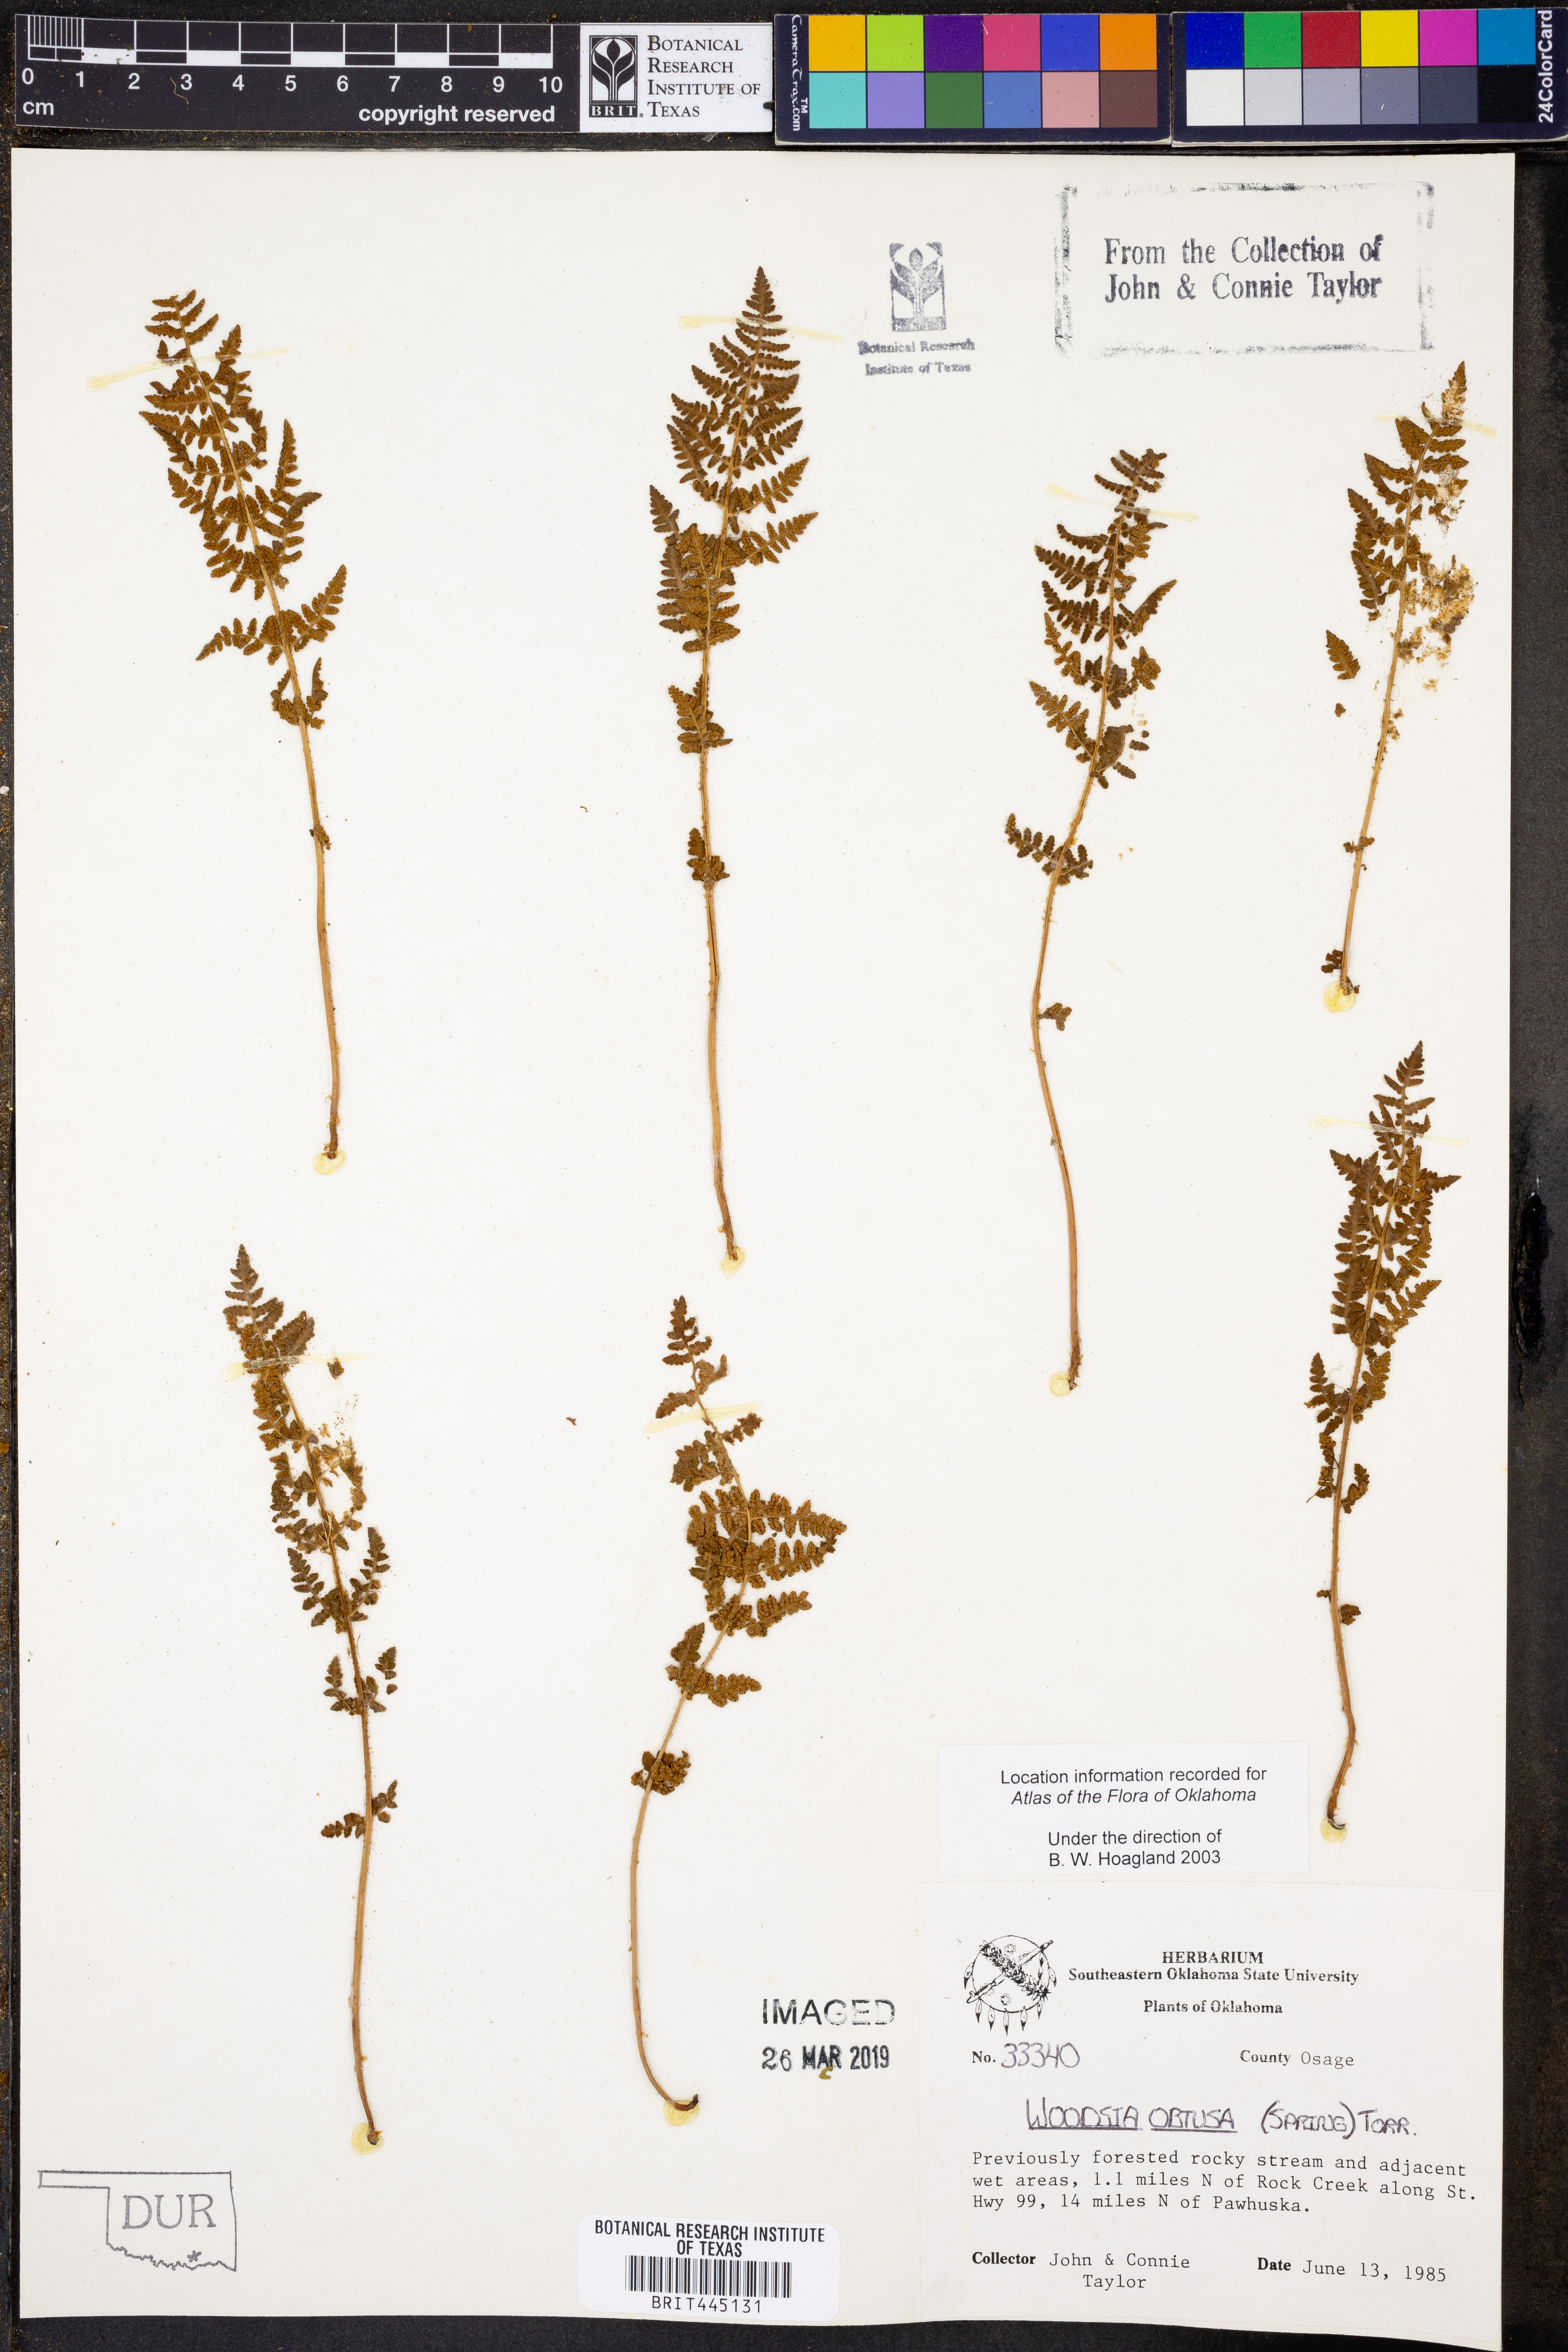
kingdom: Plantae
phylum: Tracheophyta
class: Polypodiopsida
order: Polypodiales
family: Woodsiaceae
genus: Physematium
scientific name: Physematium obtusum
